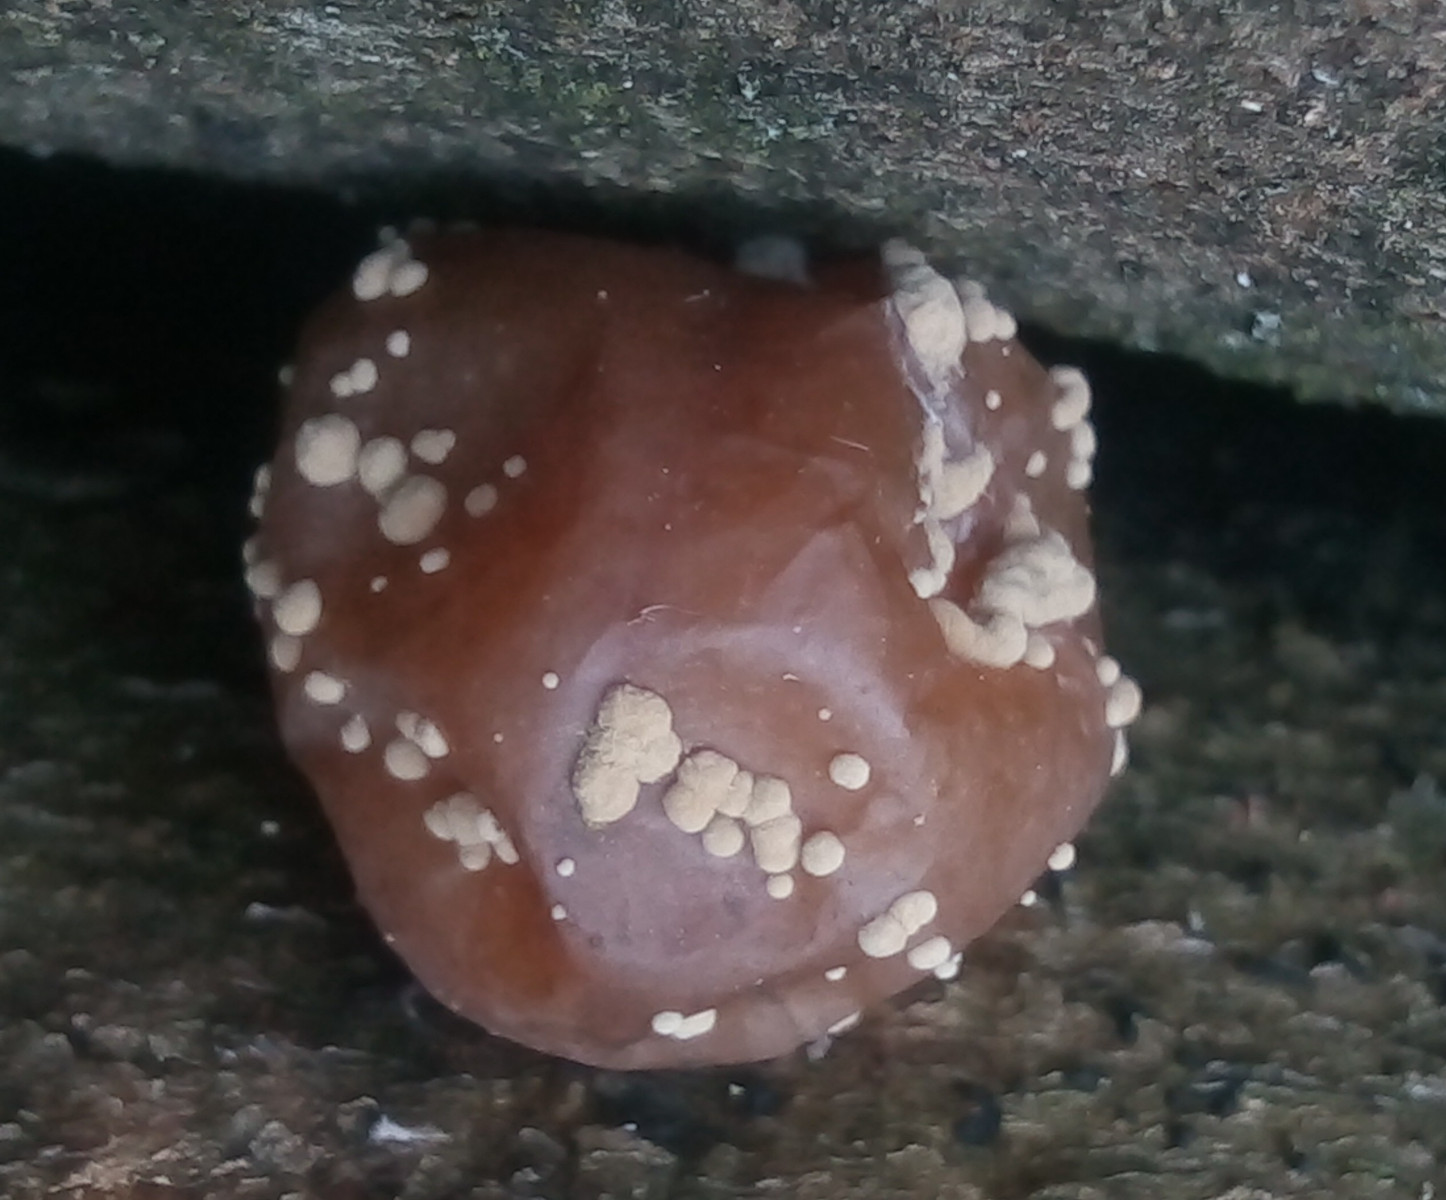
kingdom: Fungi
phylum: Ascomycota
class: Leotiomycetes
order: Helotiales
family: Sclerotiniaceae
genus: Monilinia
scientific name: Monilinia laxa
